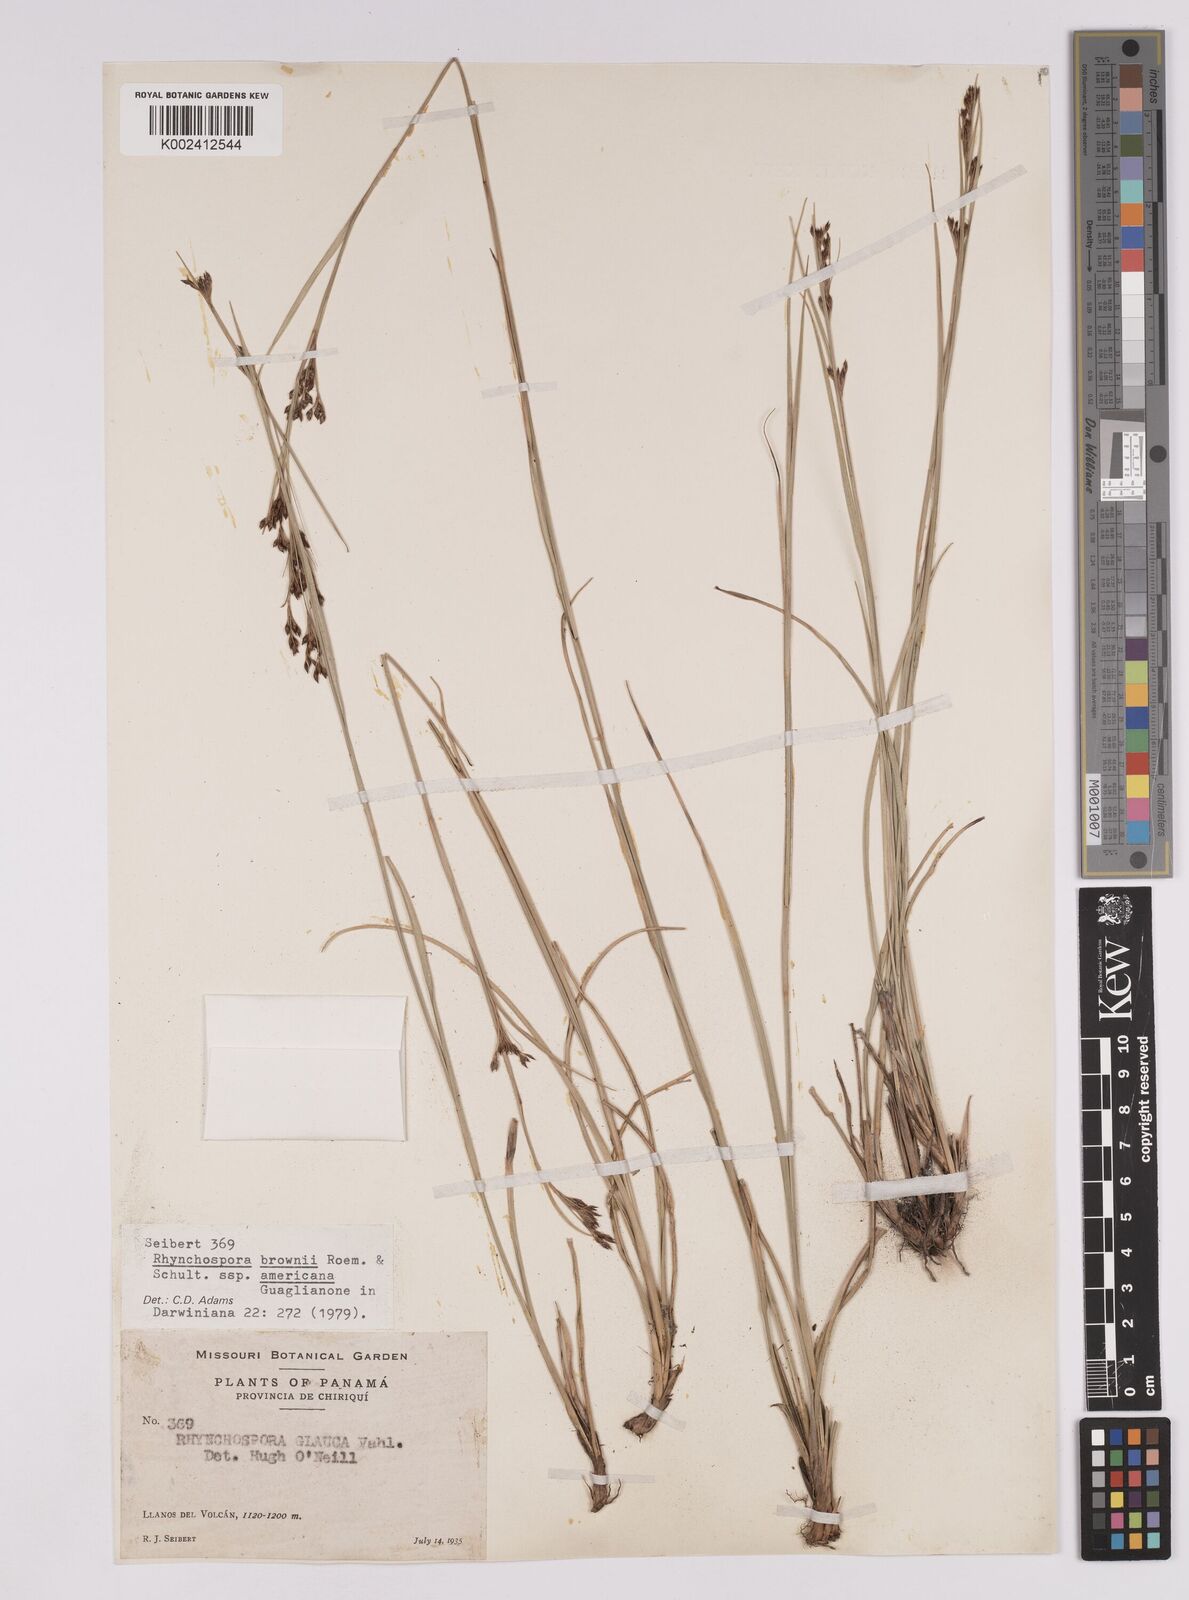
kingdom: Plantae
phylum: Tracheophyta
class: Liliopsida
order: Poales
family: Cyperaceae
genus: Rhynchospora
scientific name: Rhynchospora rugosa
